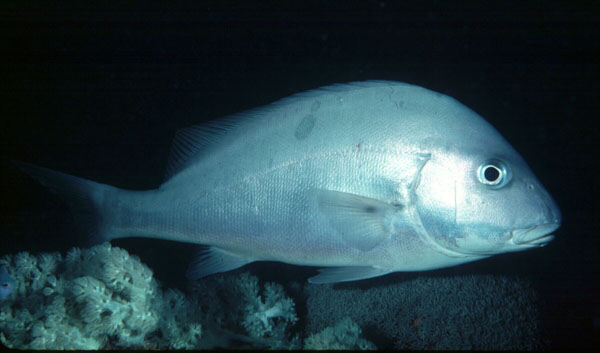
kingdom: Animalia
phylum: Chordata
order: Perciformes
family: Haemulidae
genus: Diagramma
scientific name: Diagramma pictum
